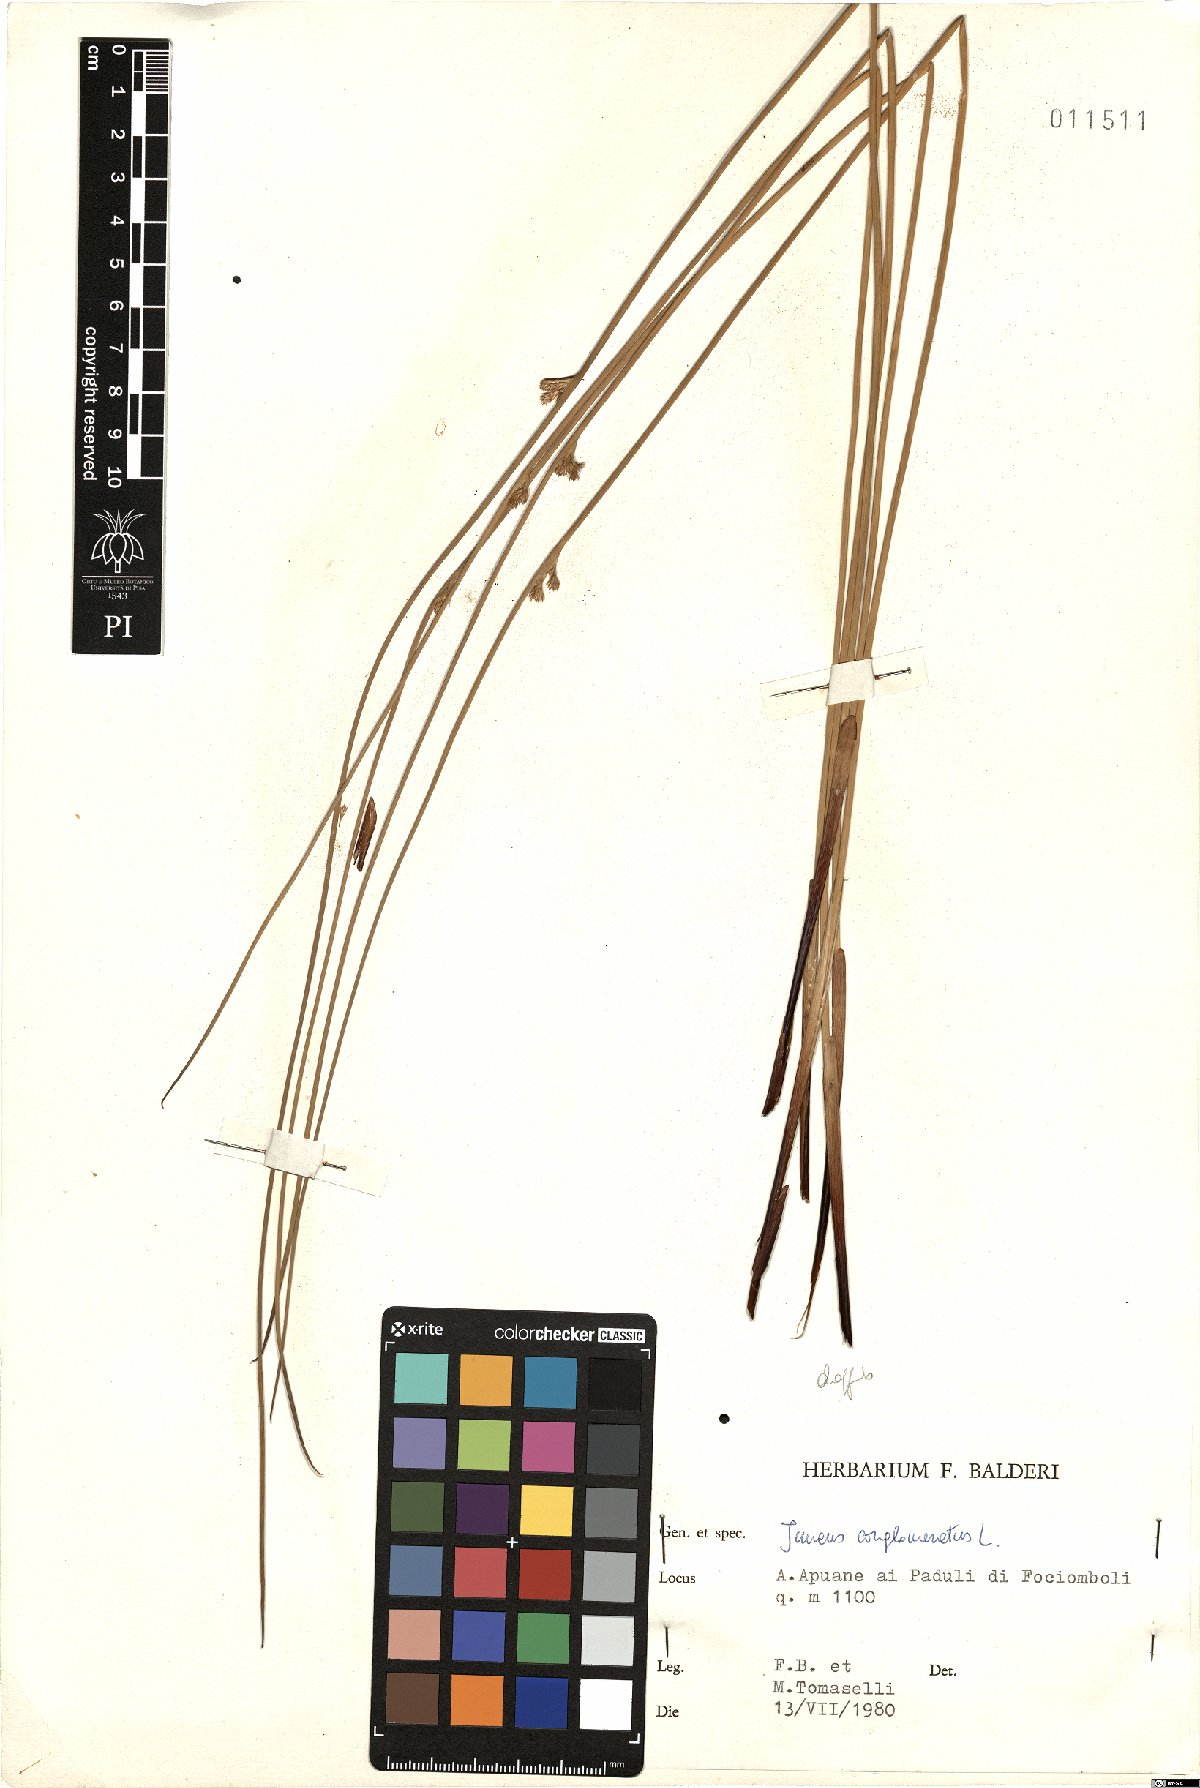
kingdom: Plantae
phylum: Tracheophyta
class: Liliopsida
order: Poales
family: Juncaceae
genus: Juncus
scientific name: Juncus inflexus
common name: Hard rush
